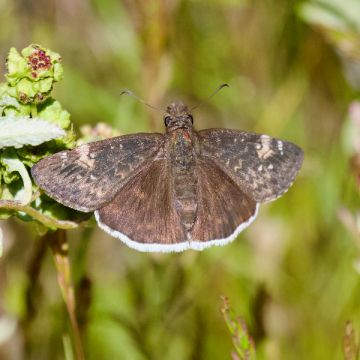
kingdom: Animalia
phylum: Arthropoda
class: Insecta
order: Lepidoptera
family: Hesperiidae
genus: Erynnis
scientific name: Erynnis funeralis
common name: Funereal Duskywing
